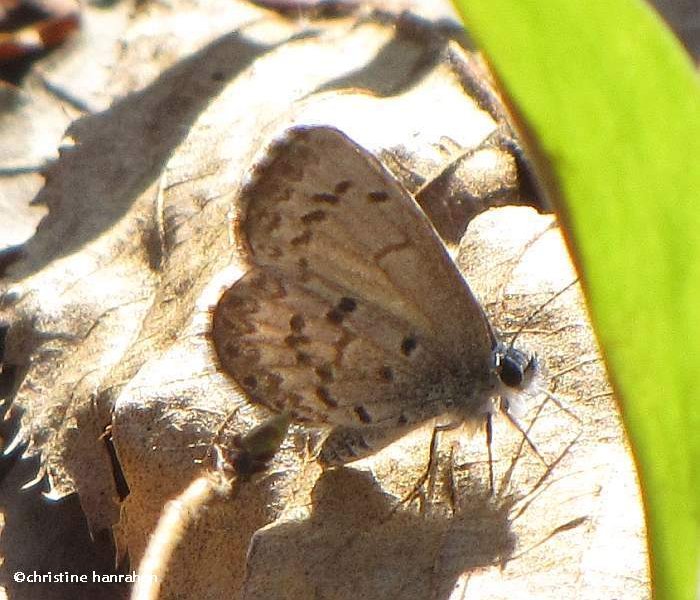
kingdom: Animalia
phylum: Arthropoda
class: Insecta
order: Lepidoptera
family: Lycaenidae
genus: Celastrina
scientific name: Celastrina lucia
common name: Northern Spring Azure
